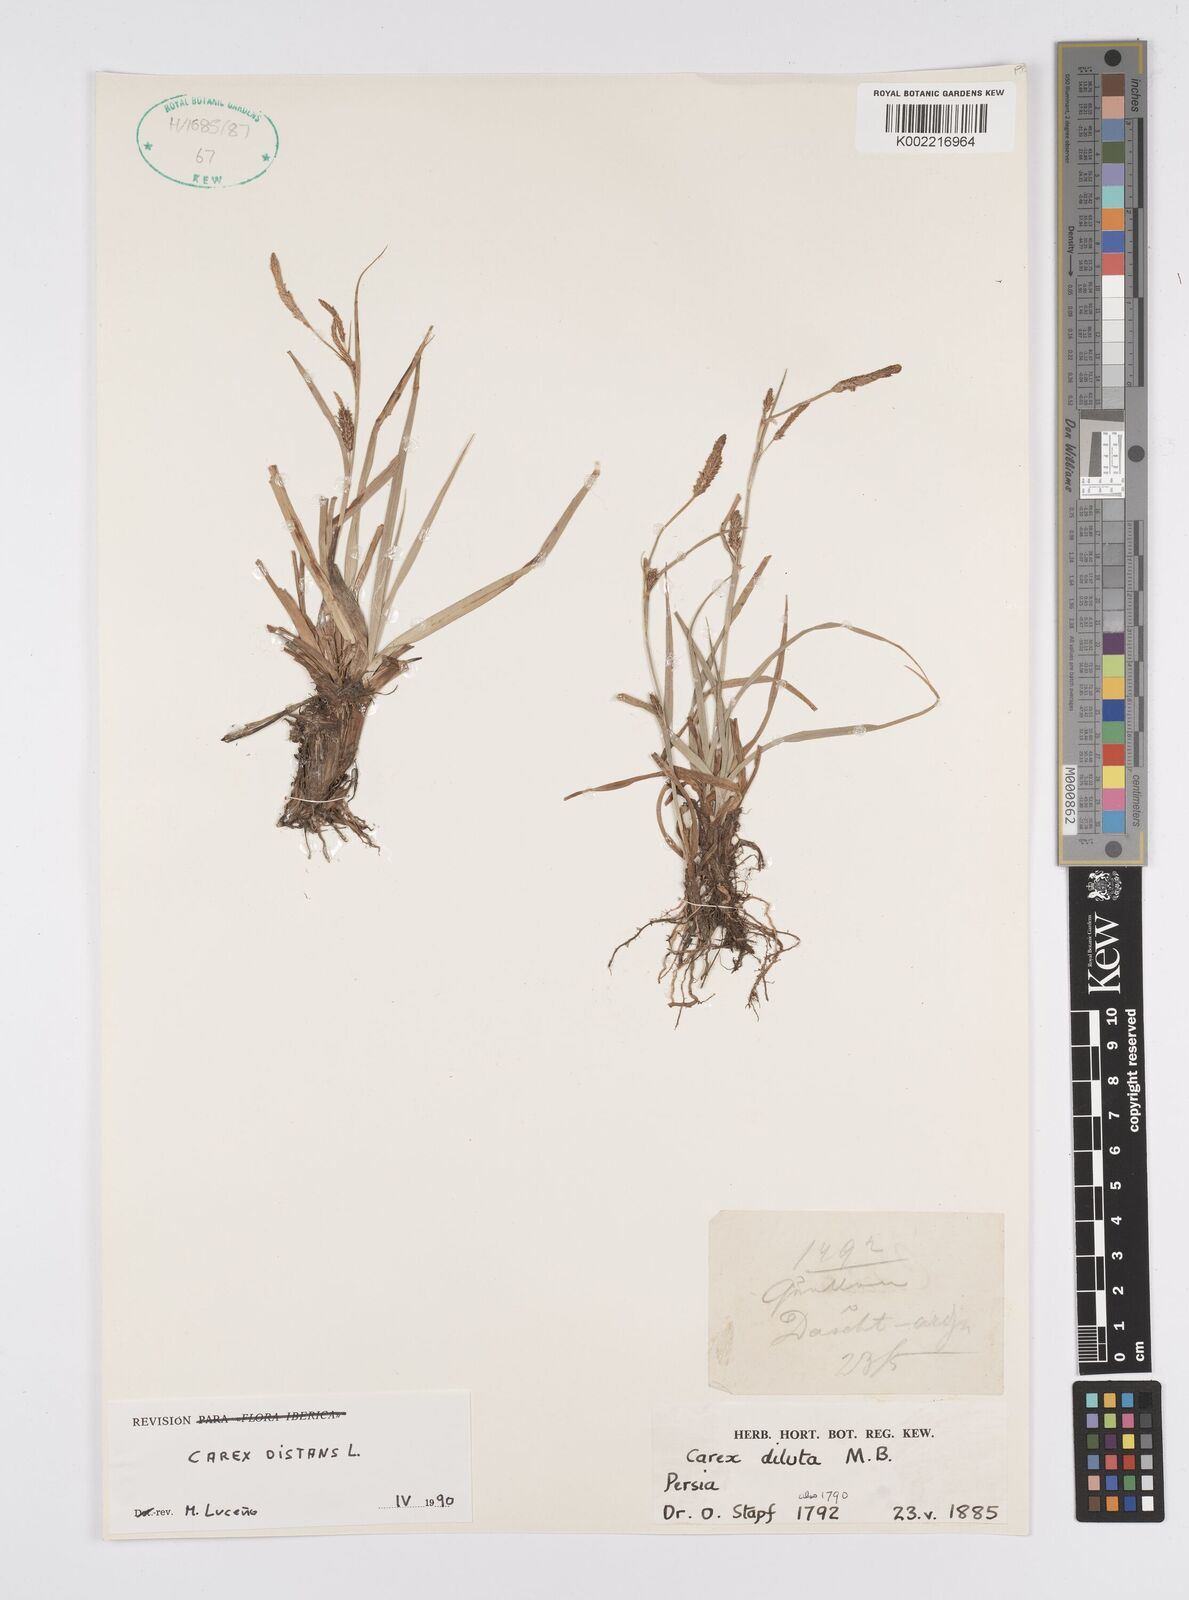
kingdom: Plantae
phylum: Tracheophyta
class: Liliopsida
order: Poales
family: Cyperaceae
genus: Carex
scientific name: Carex distans
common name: Distant sedge
